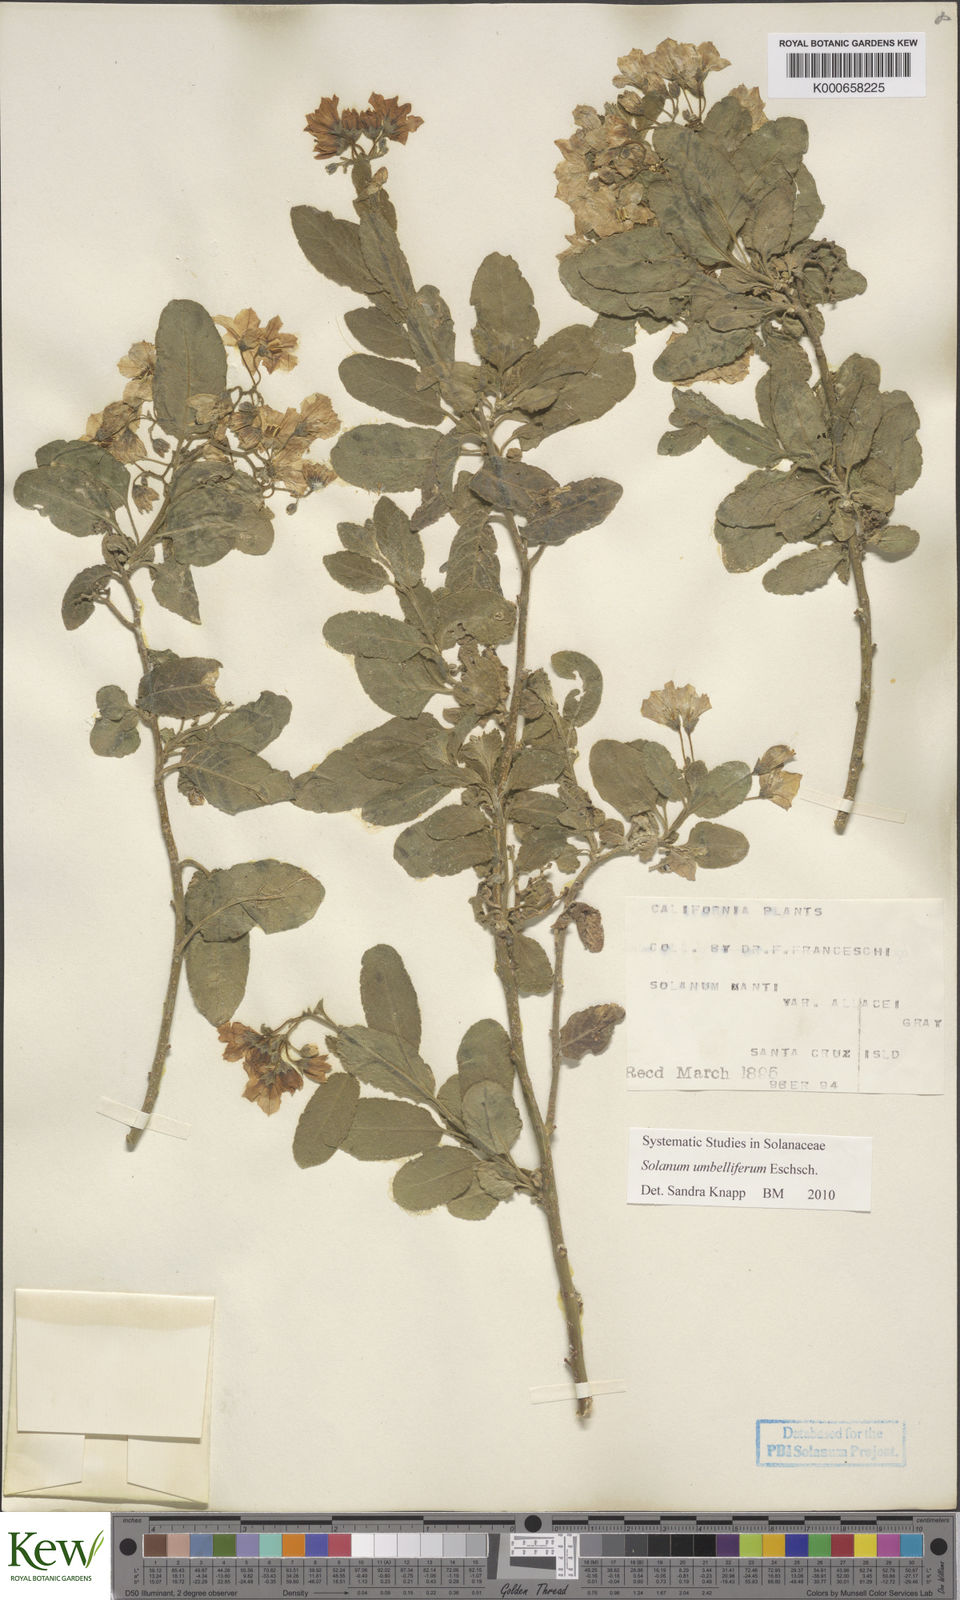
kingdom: Plantae
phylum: Tracheophyta
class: Magnoliopsida
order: Solanales
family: Solanaceae
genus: Solanum
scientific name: Solanum umbelliferum
